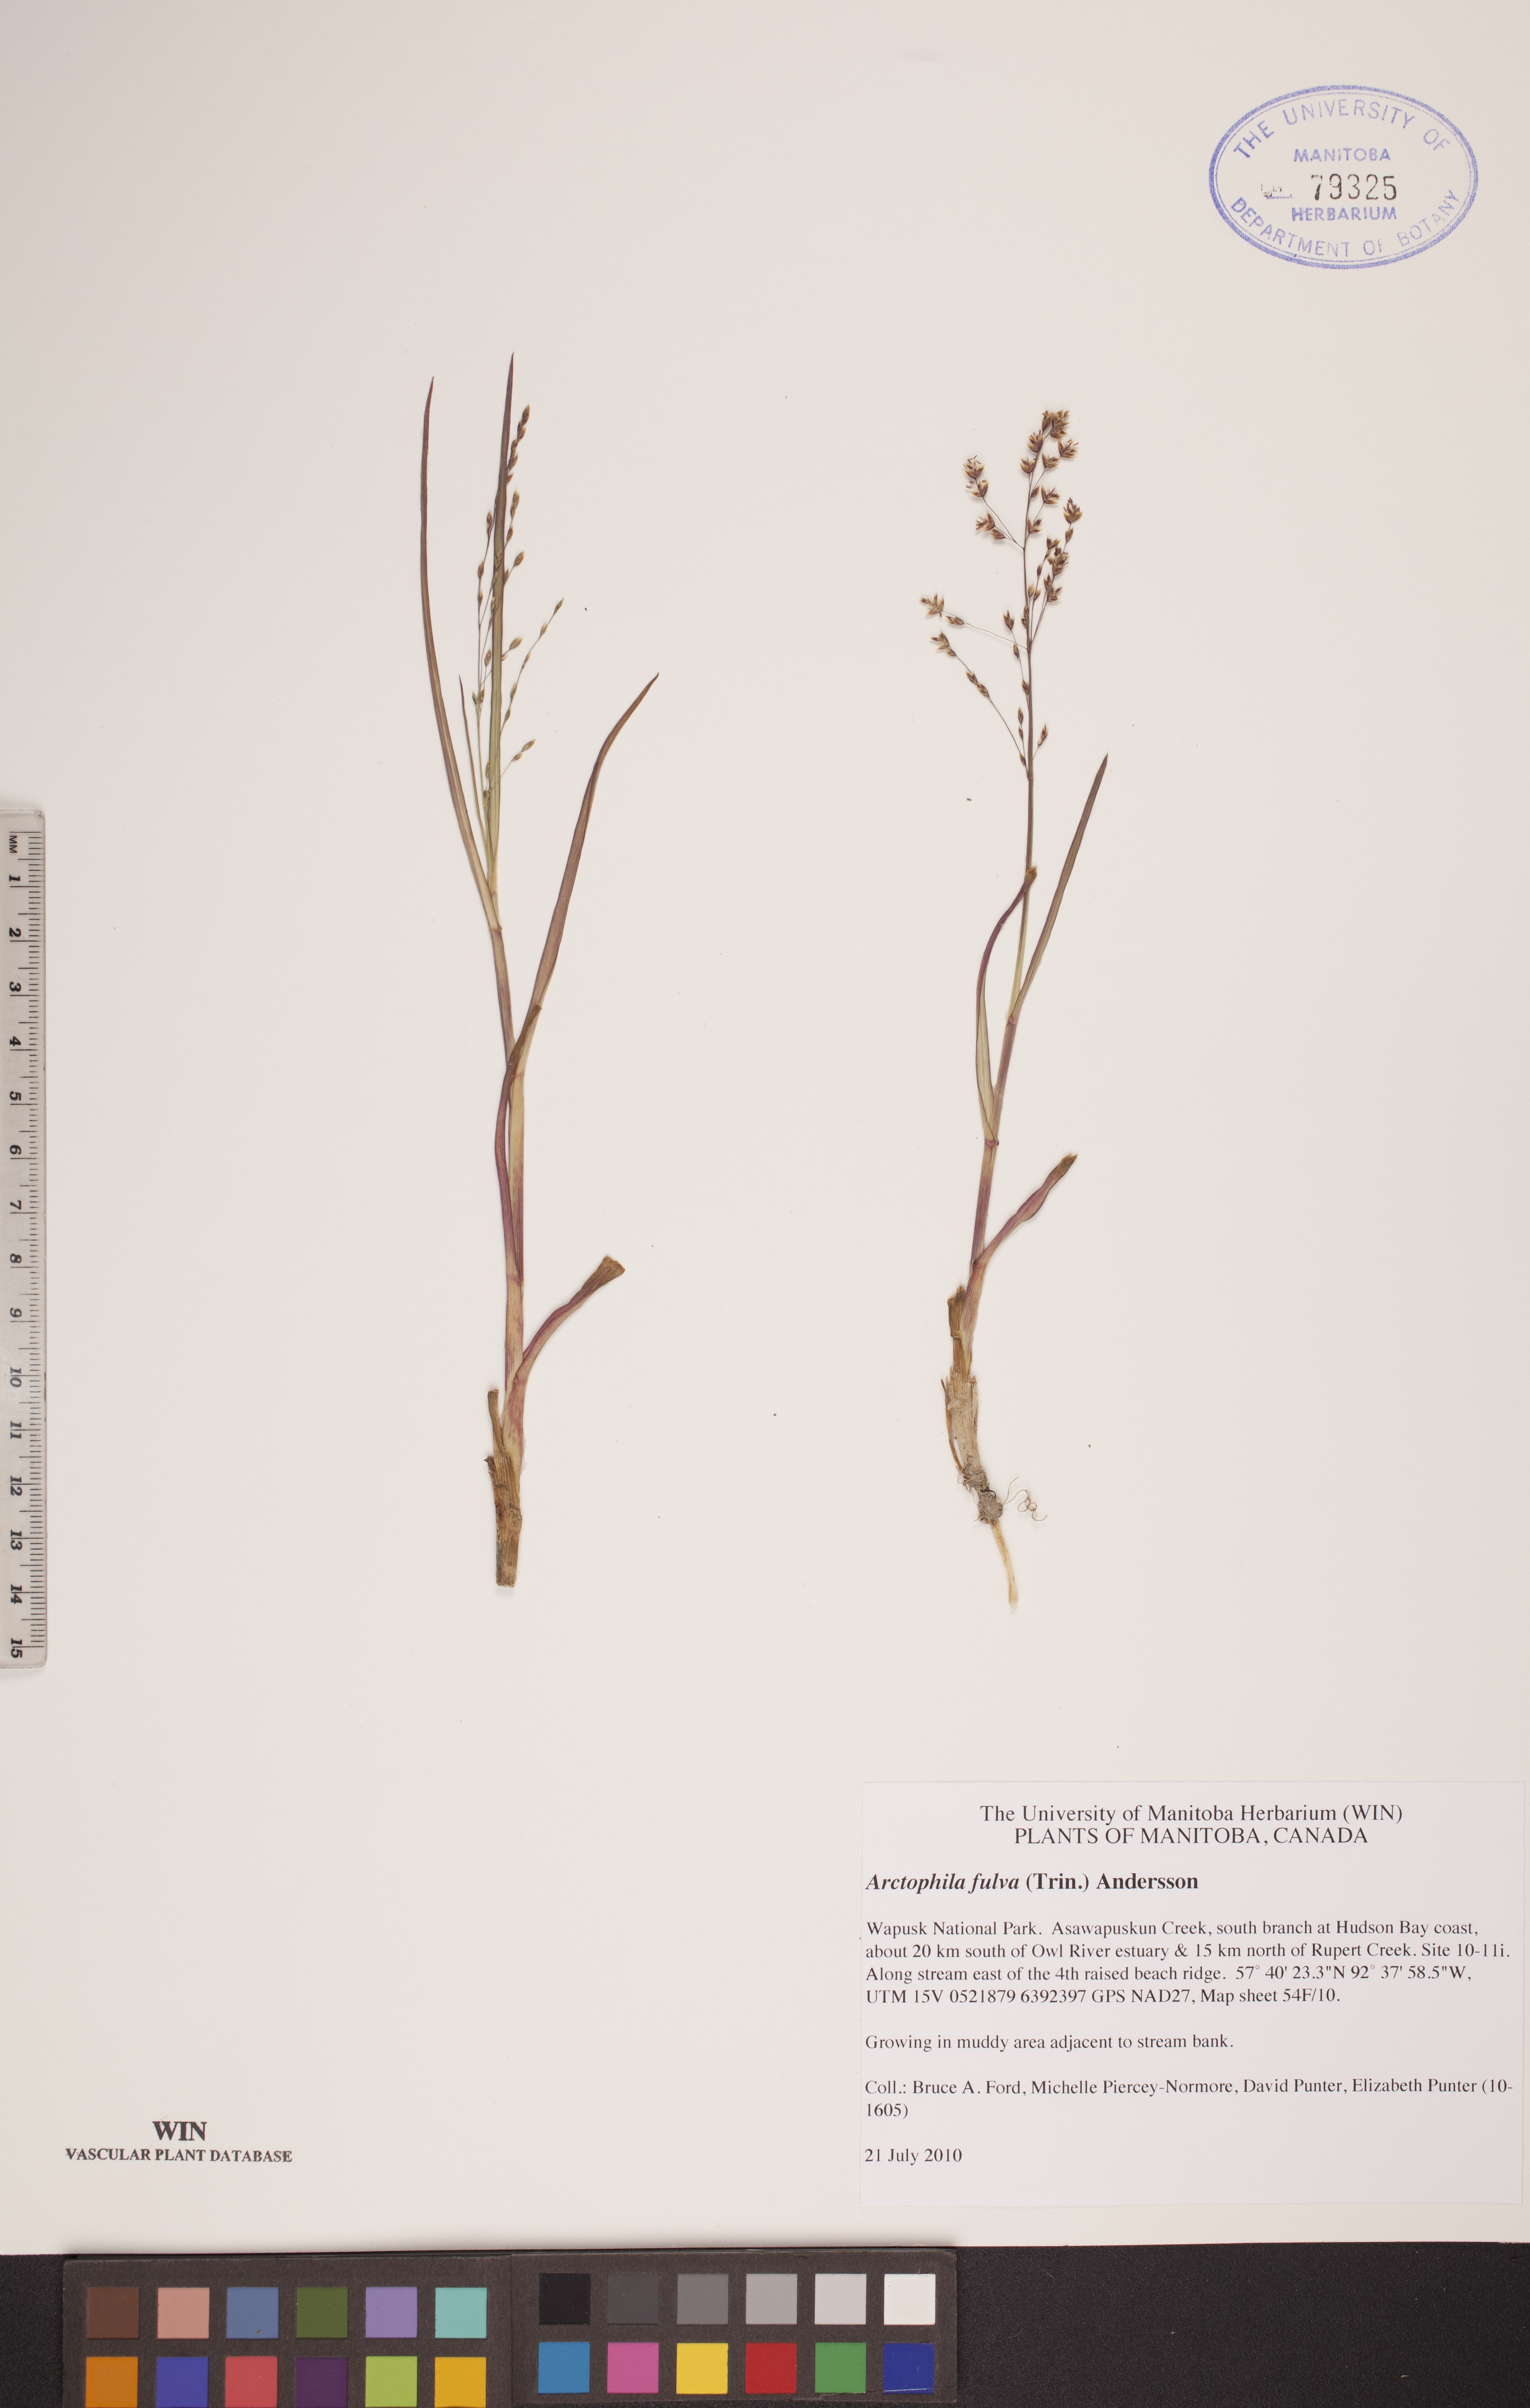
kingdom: Plantae
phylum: Tracheophyta
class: Liliopsida
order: Poales
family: Poaceae
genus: Dupontia
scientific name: Dupontia fulva
